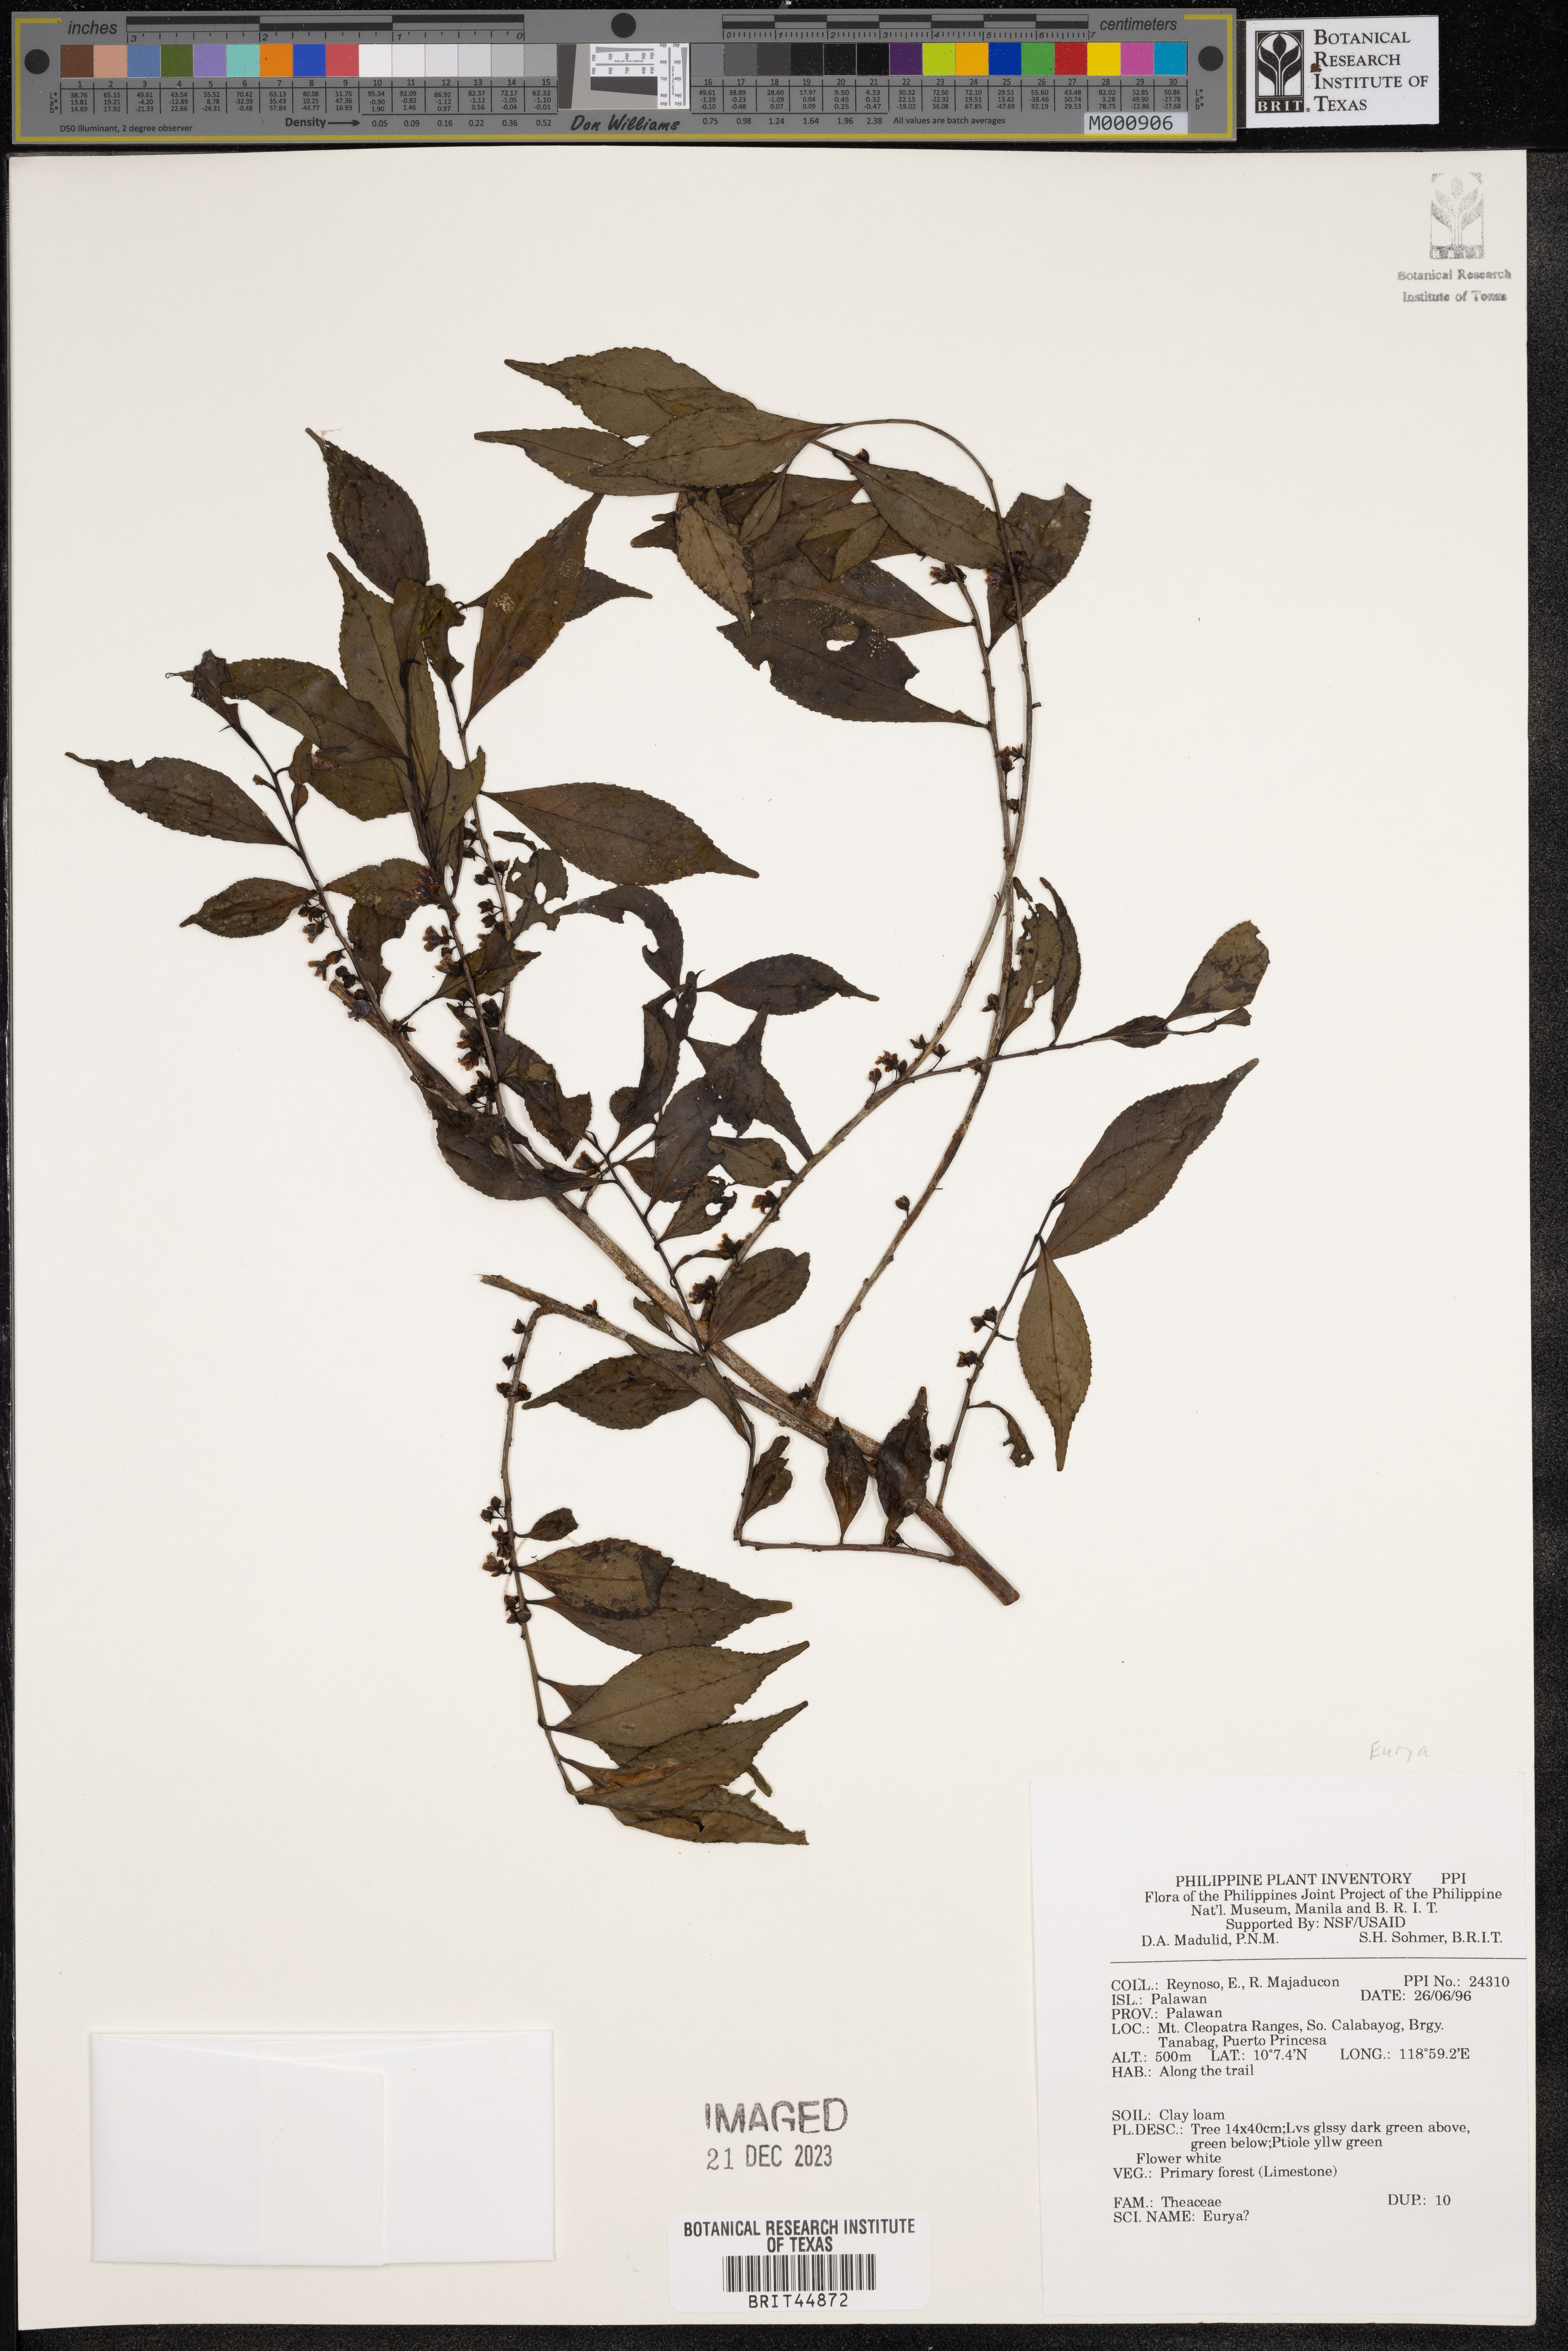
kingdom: Plantae
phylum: Tracheophyta
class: Magnoliopsida
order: Ericales
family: Pentaphylacaceae
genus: Eurya
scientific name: Eurya
